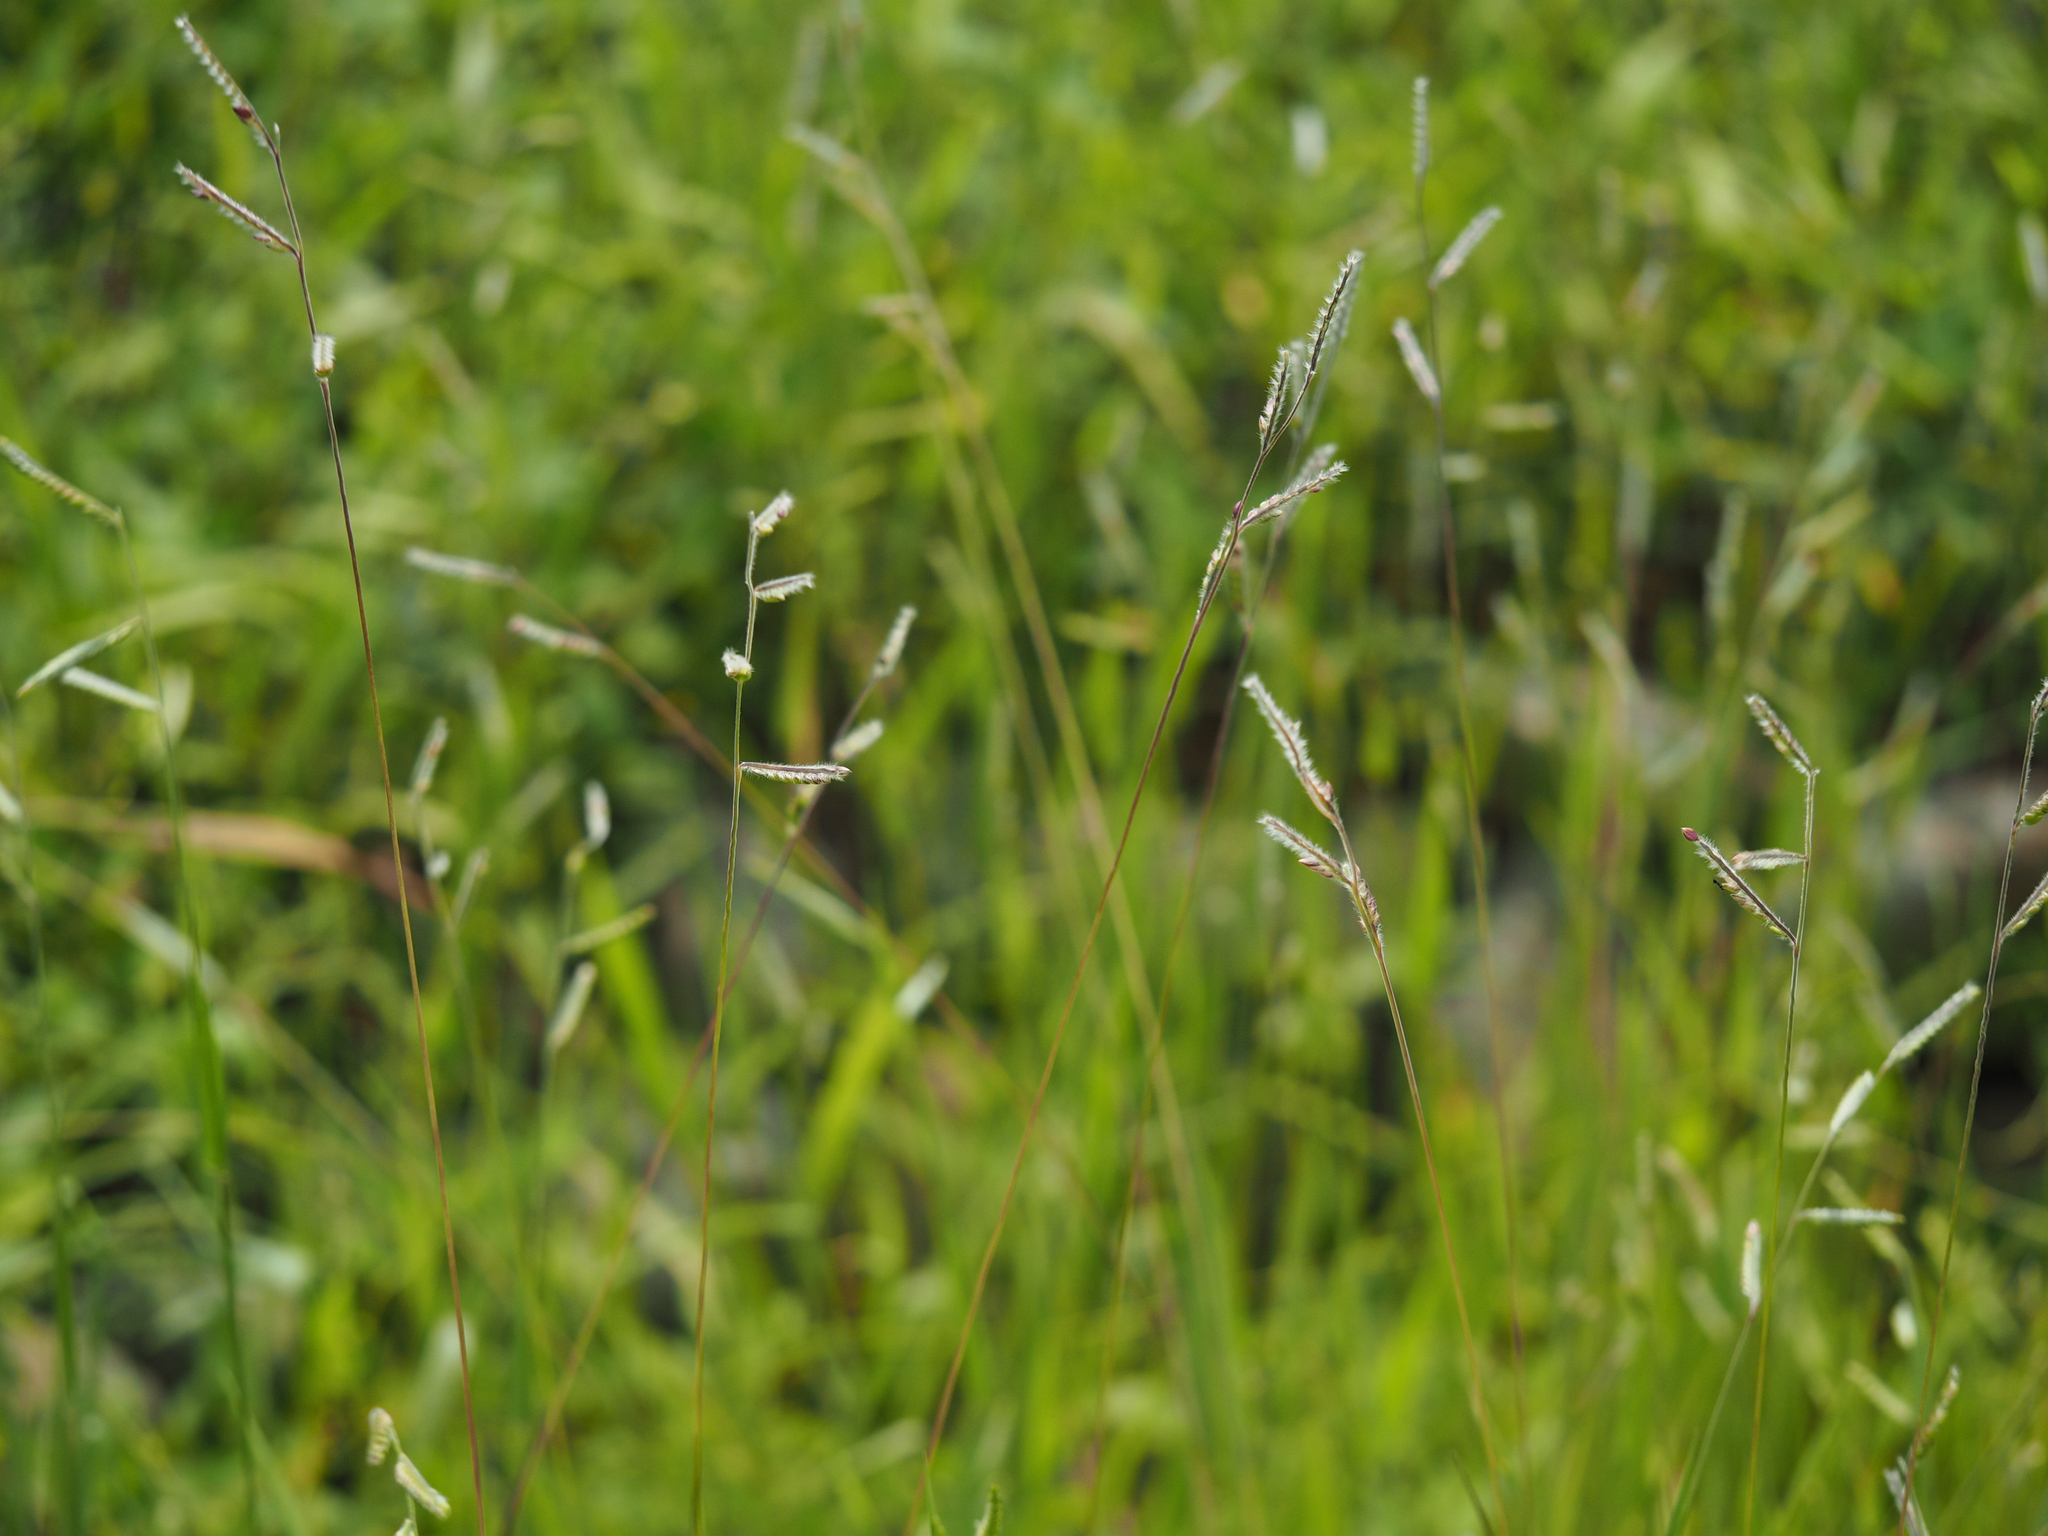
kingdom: Plantae
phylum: Tracheophyta
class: Liliopsida
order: Poales
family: Poaceae
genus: Eriochloa
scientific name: Eriochloa villosa
